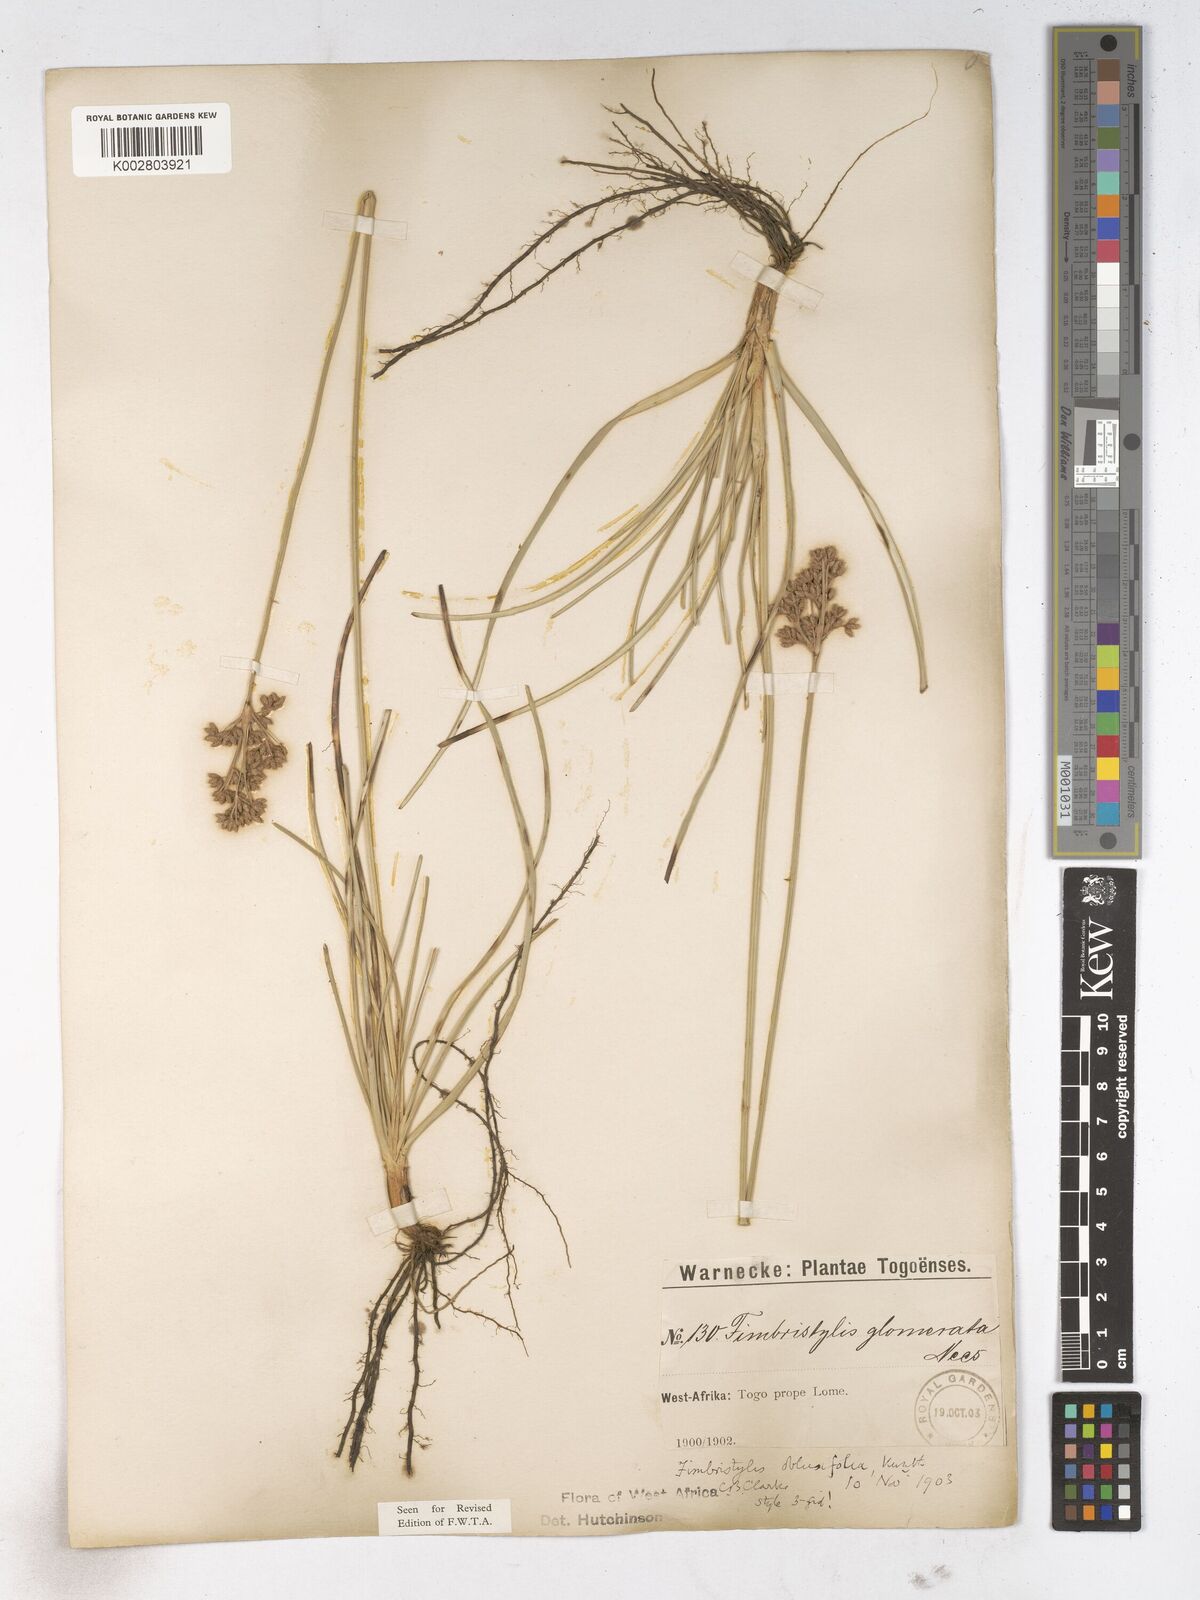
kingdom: Plantae
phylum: Tracheophyta
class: Liliopsida
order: Poales
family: Cyperaceae
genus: Fimbristylis
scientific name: Fimbristylis cymosa
